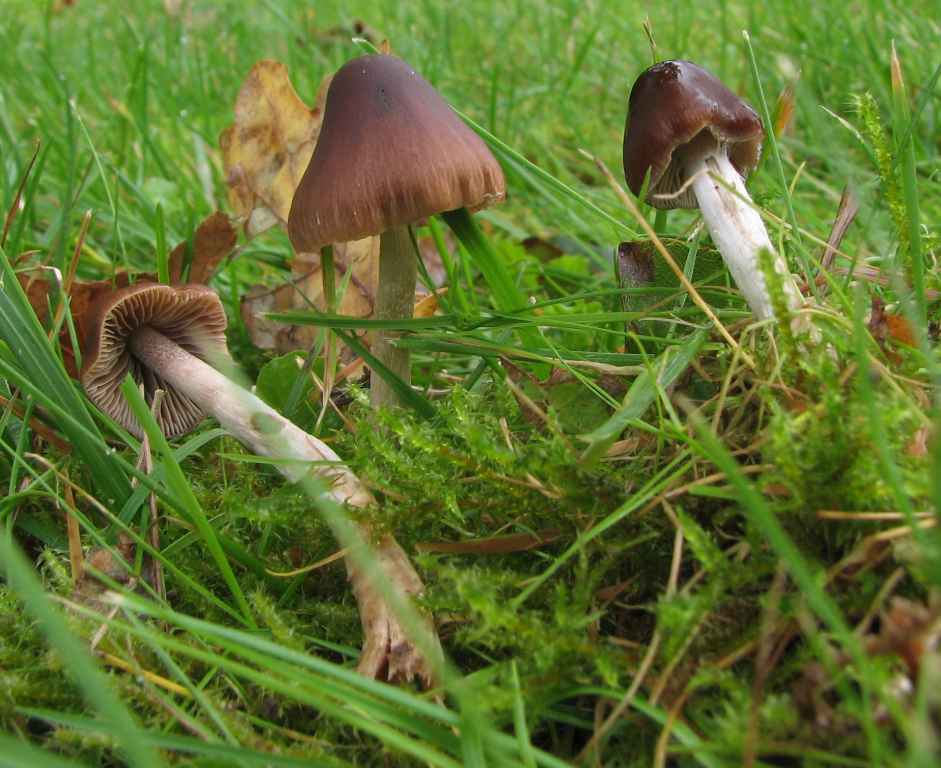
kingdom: Fungi
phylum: Basidiomycota
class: Agaricomycetes
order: Agaricales
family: Hymenogastraceae
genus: Naucoria
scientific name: Naucoria bohemica
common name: birke-knaphat
